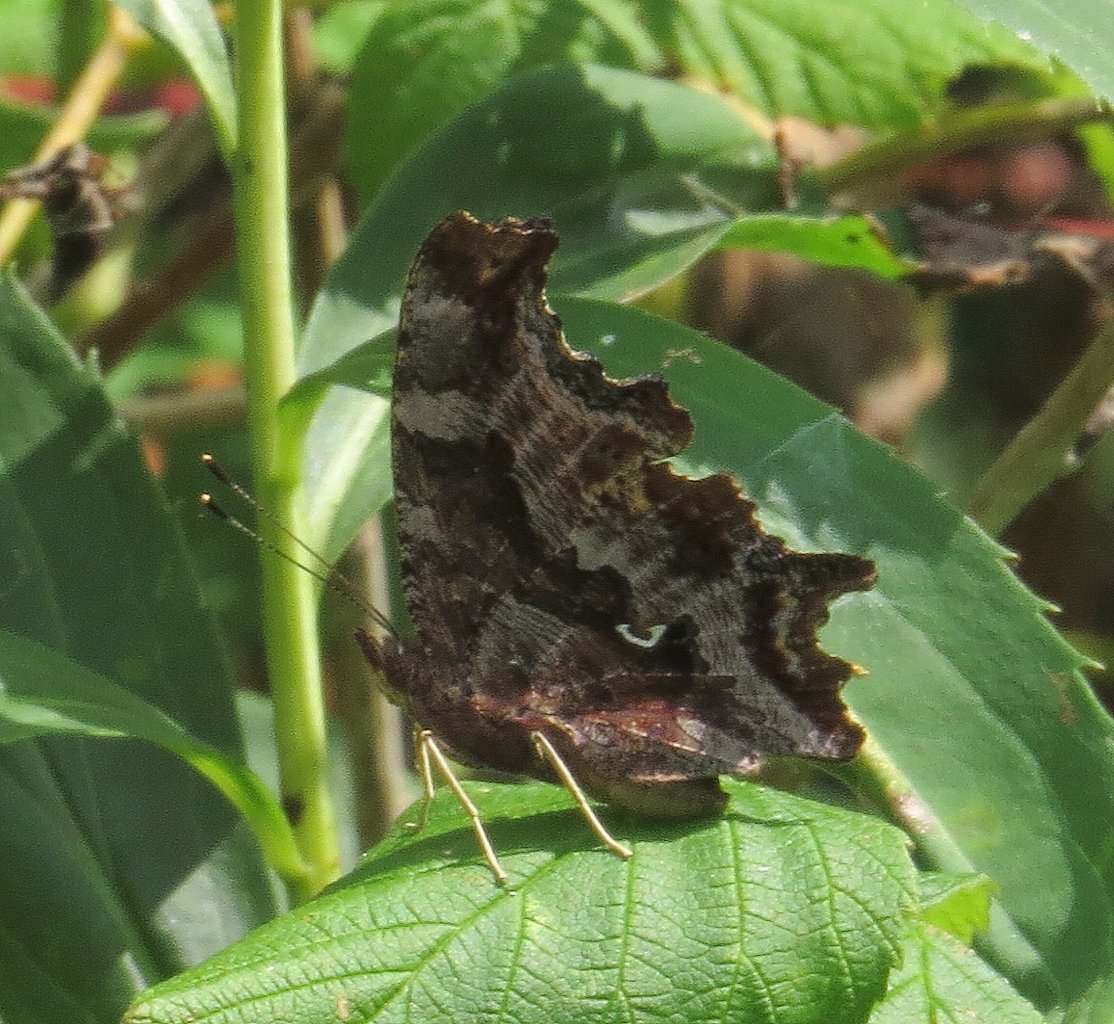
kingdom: Animalia
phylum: Arthropoda
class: Insecta
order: Lepidoptera
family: Nymphalidae
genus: Polygonia
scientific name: Polygonia comma
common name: Eastern Comma
